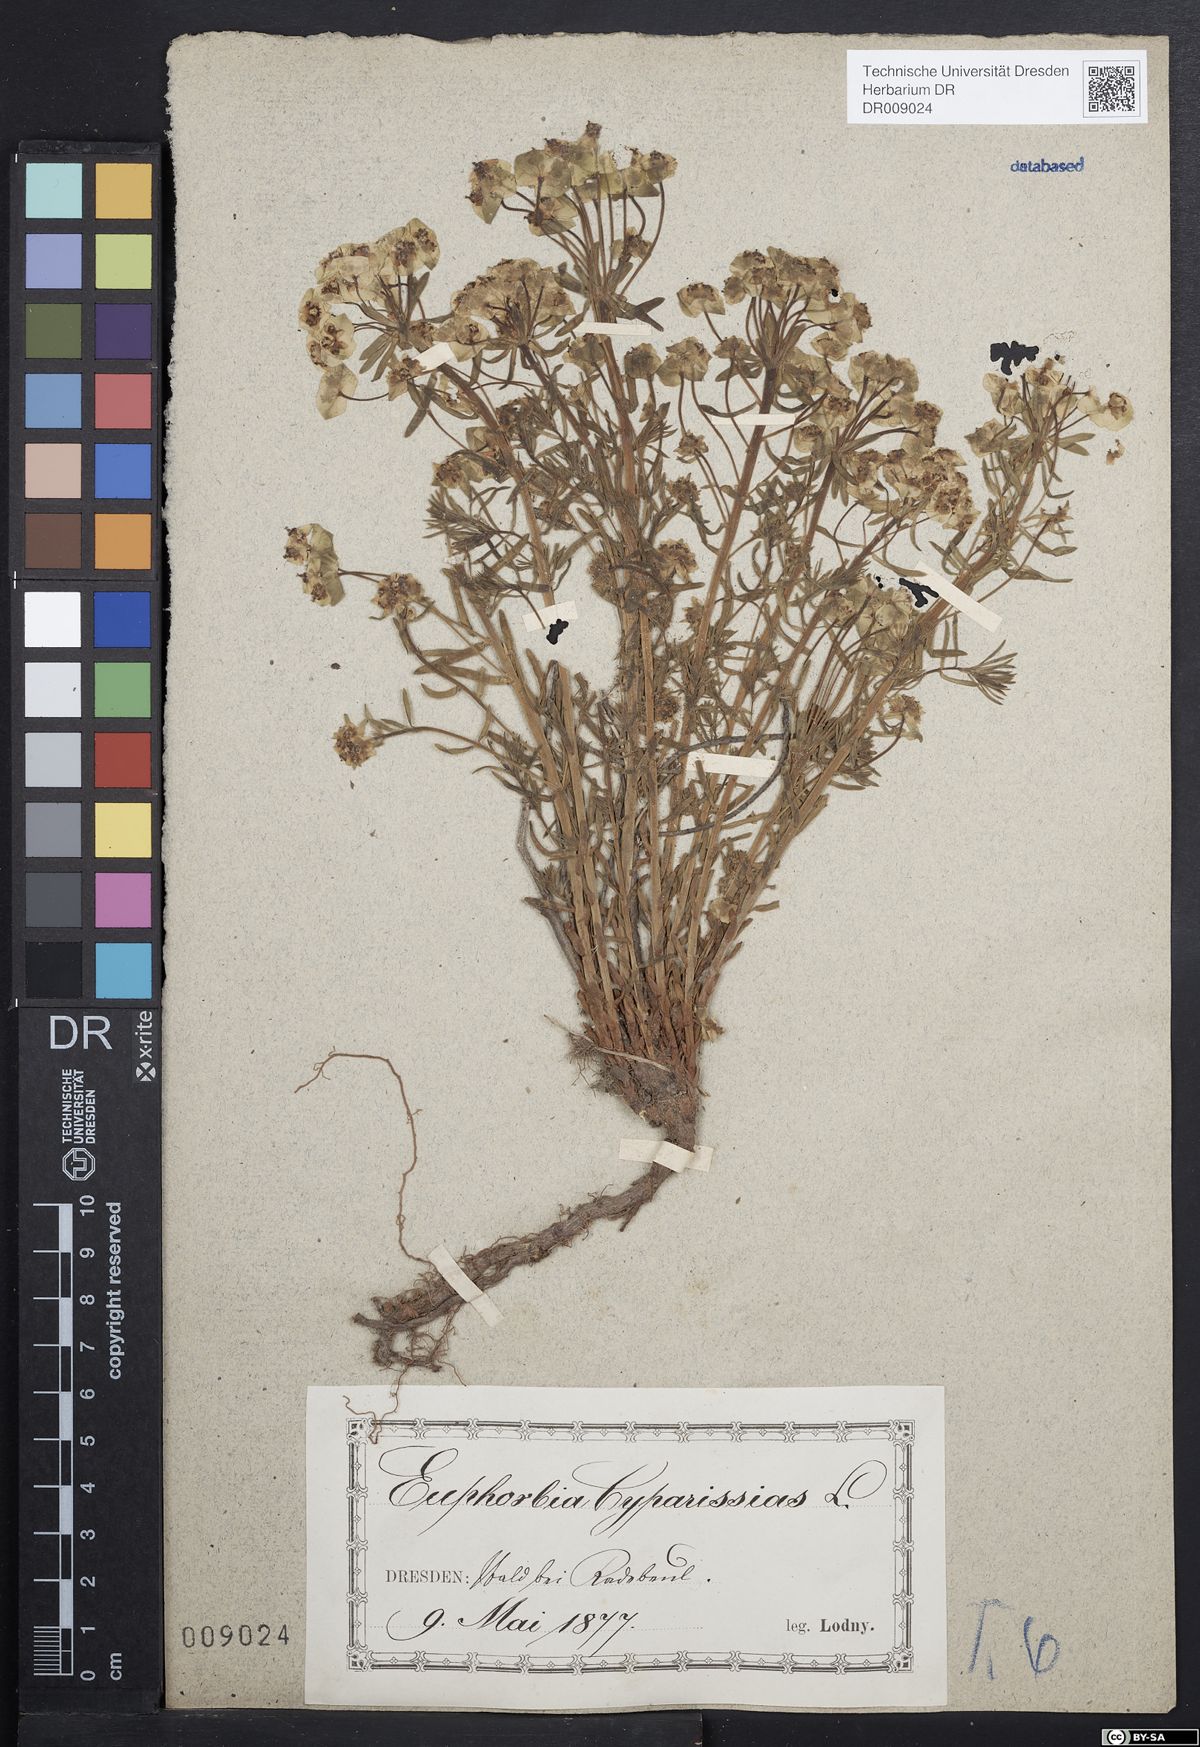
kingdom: Plantae
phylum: Tracheophyta
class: Magnoliopsida
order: Malpighiales
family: Euphorbiaceae
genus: Euphorbia
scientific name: Euphorbia cyparissias
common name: Cypress spurge
